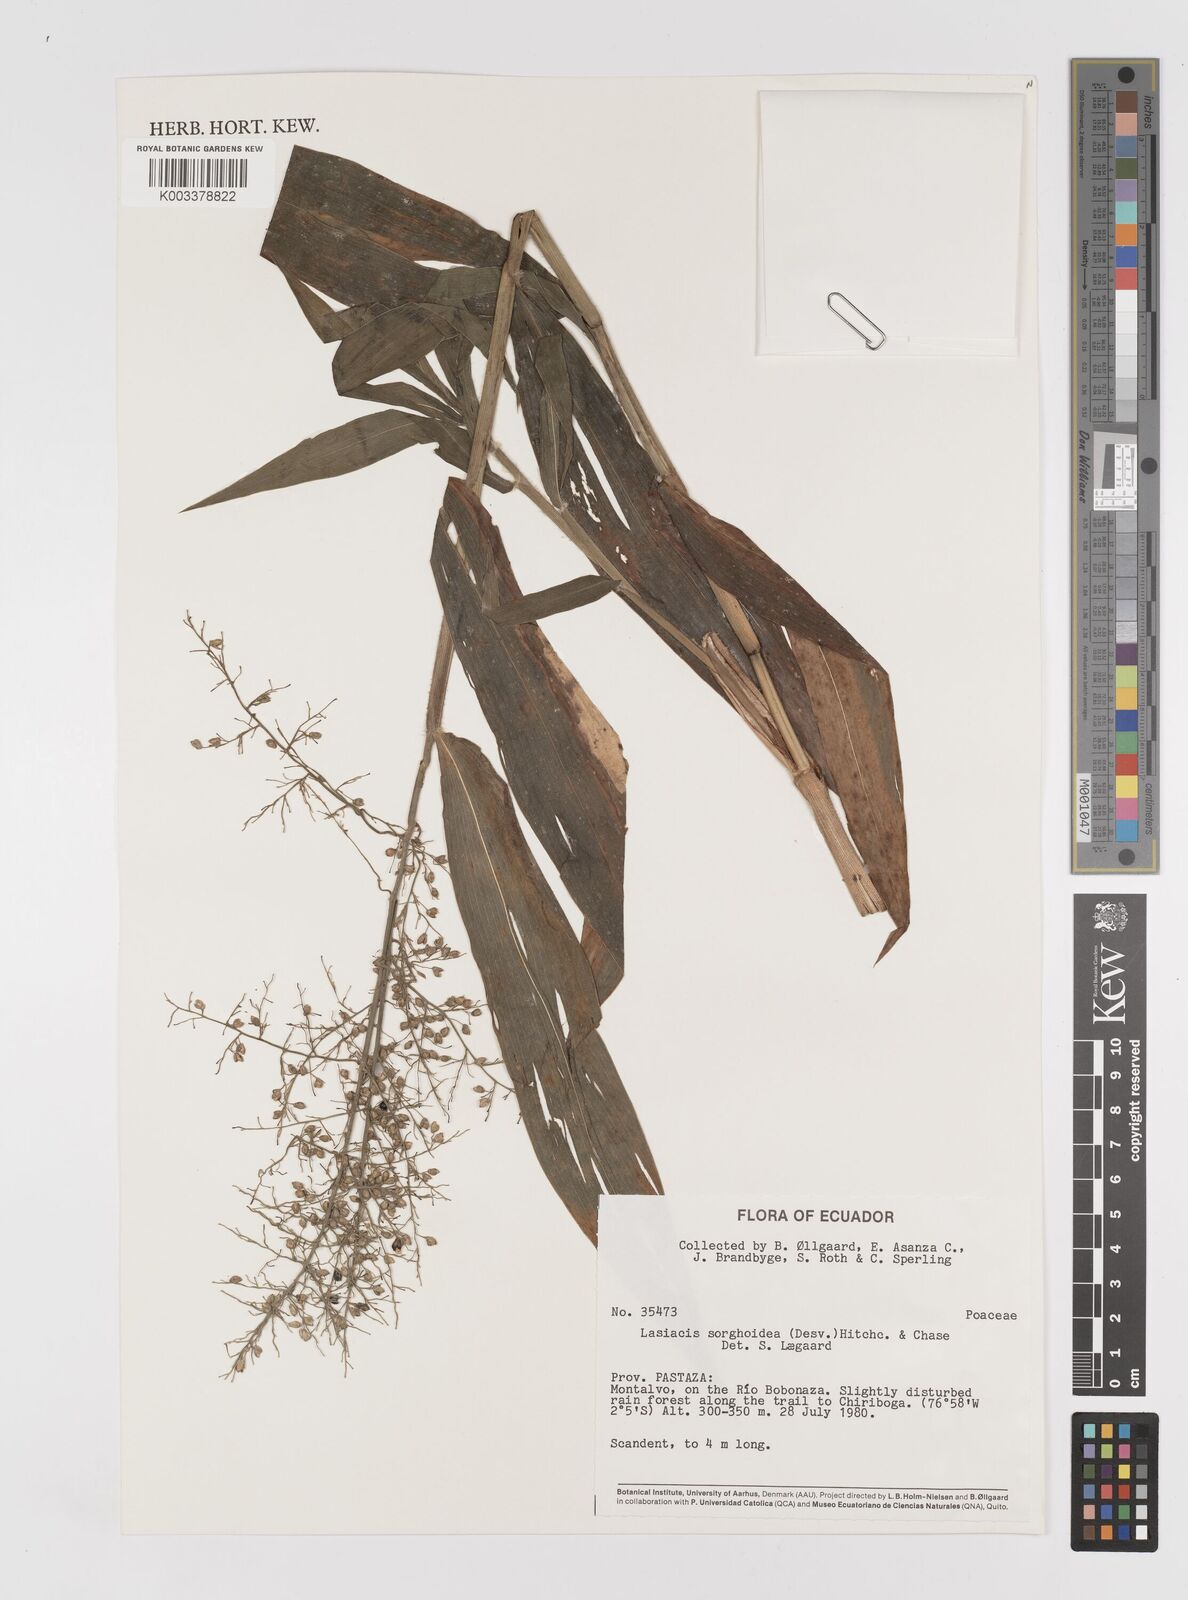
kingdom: Plantae
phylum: Tracheophyta
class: Liliopsida
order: Poales
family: Poaceae
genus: Lasiacis
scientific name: Lasiacis maculata
